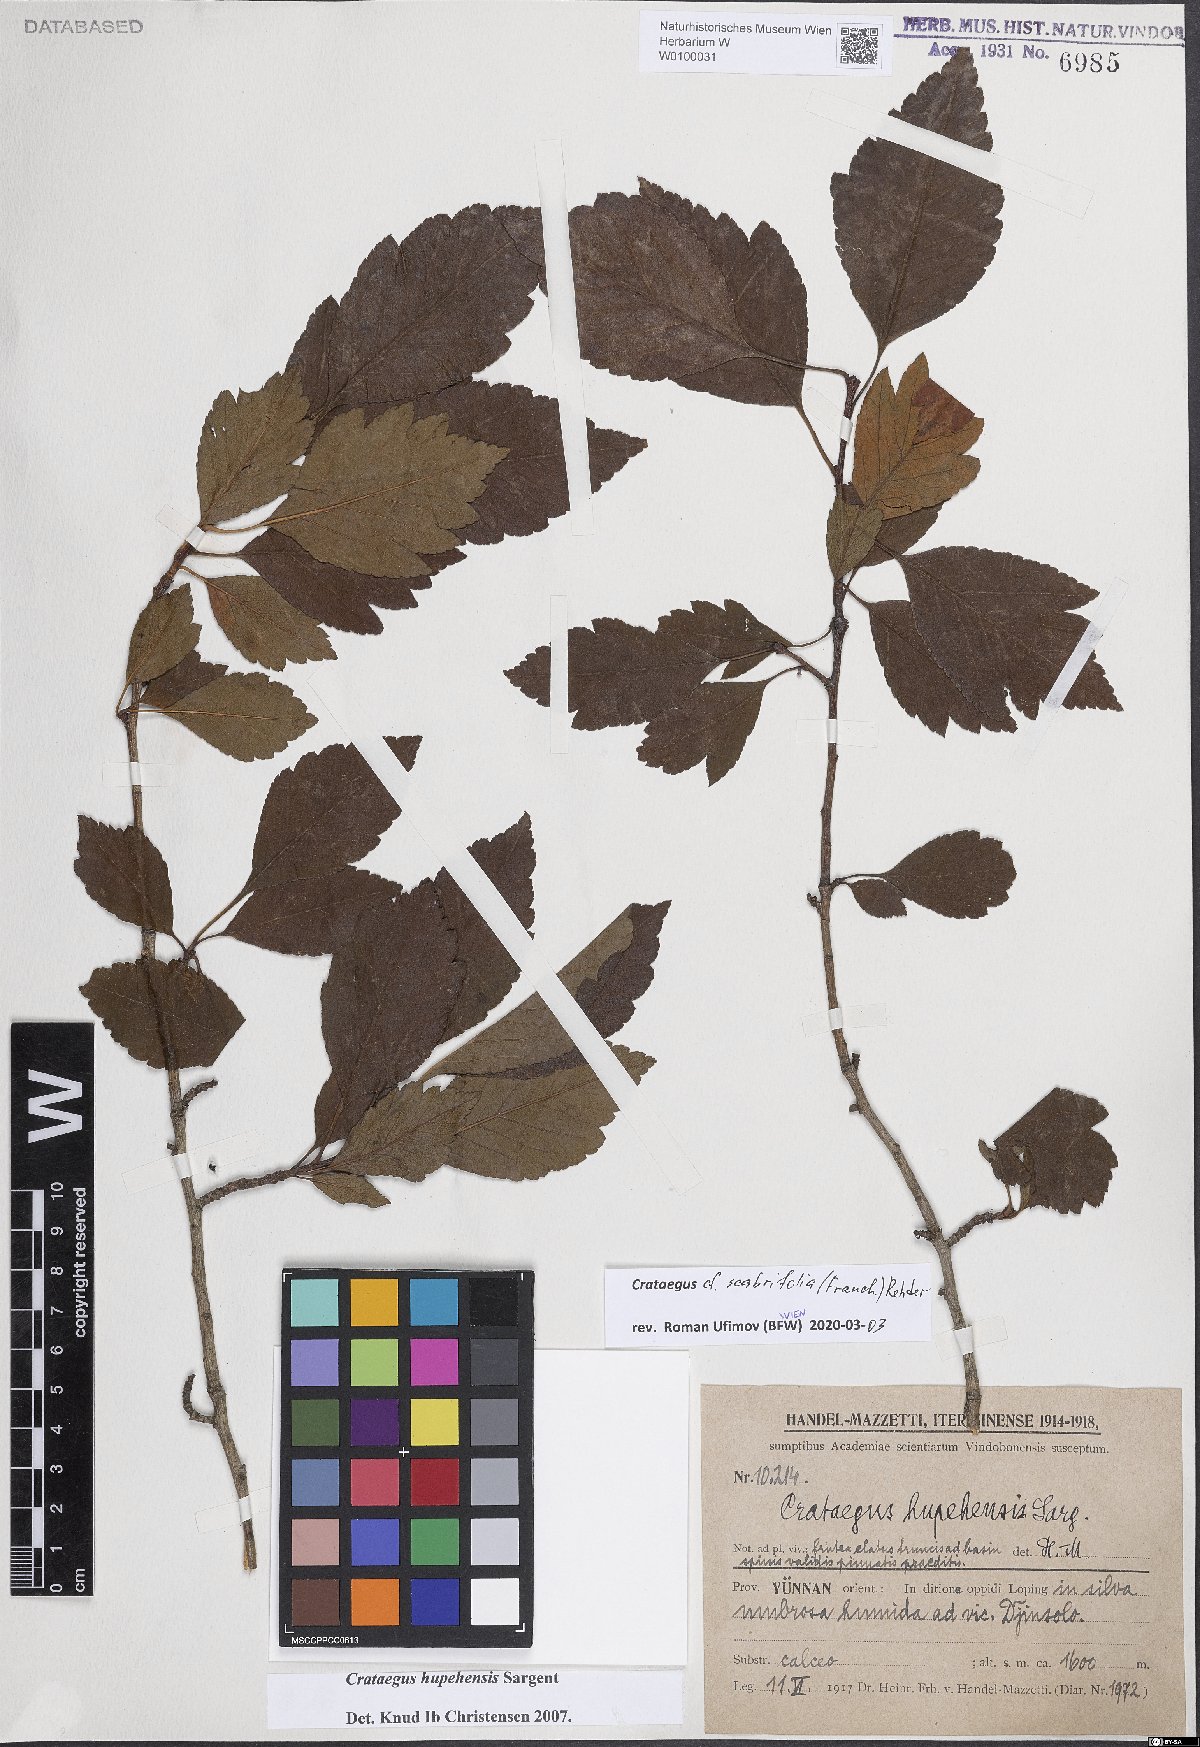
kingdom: Plantae
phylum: Tracheophyta
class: Magnoliopsida
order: Rosales
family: Rosaceae
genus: Crataegus
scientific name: Crataegus scabrifolia
